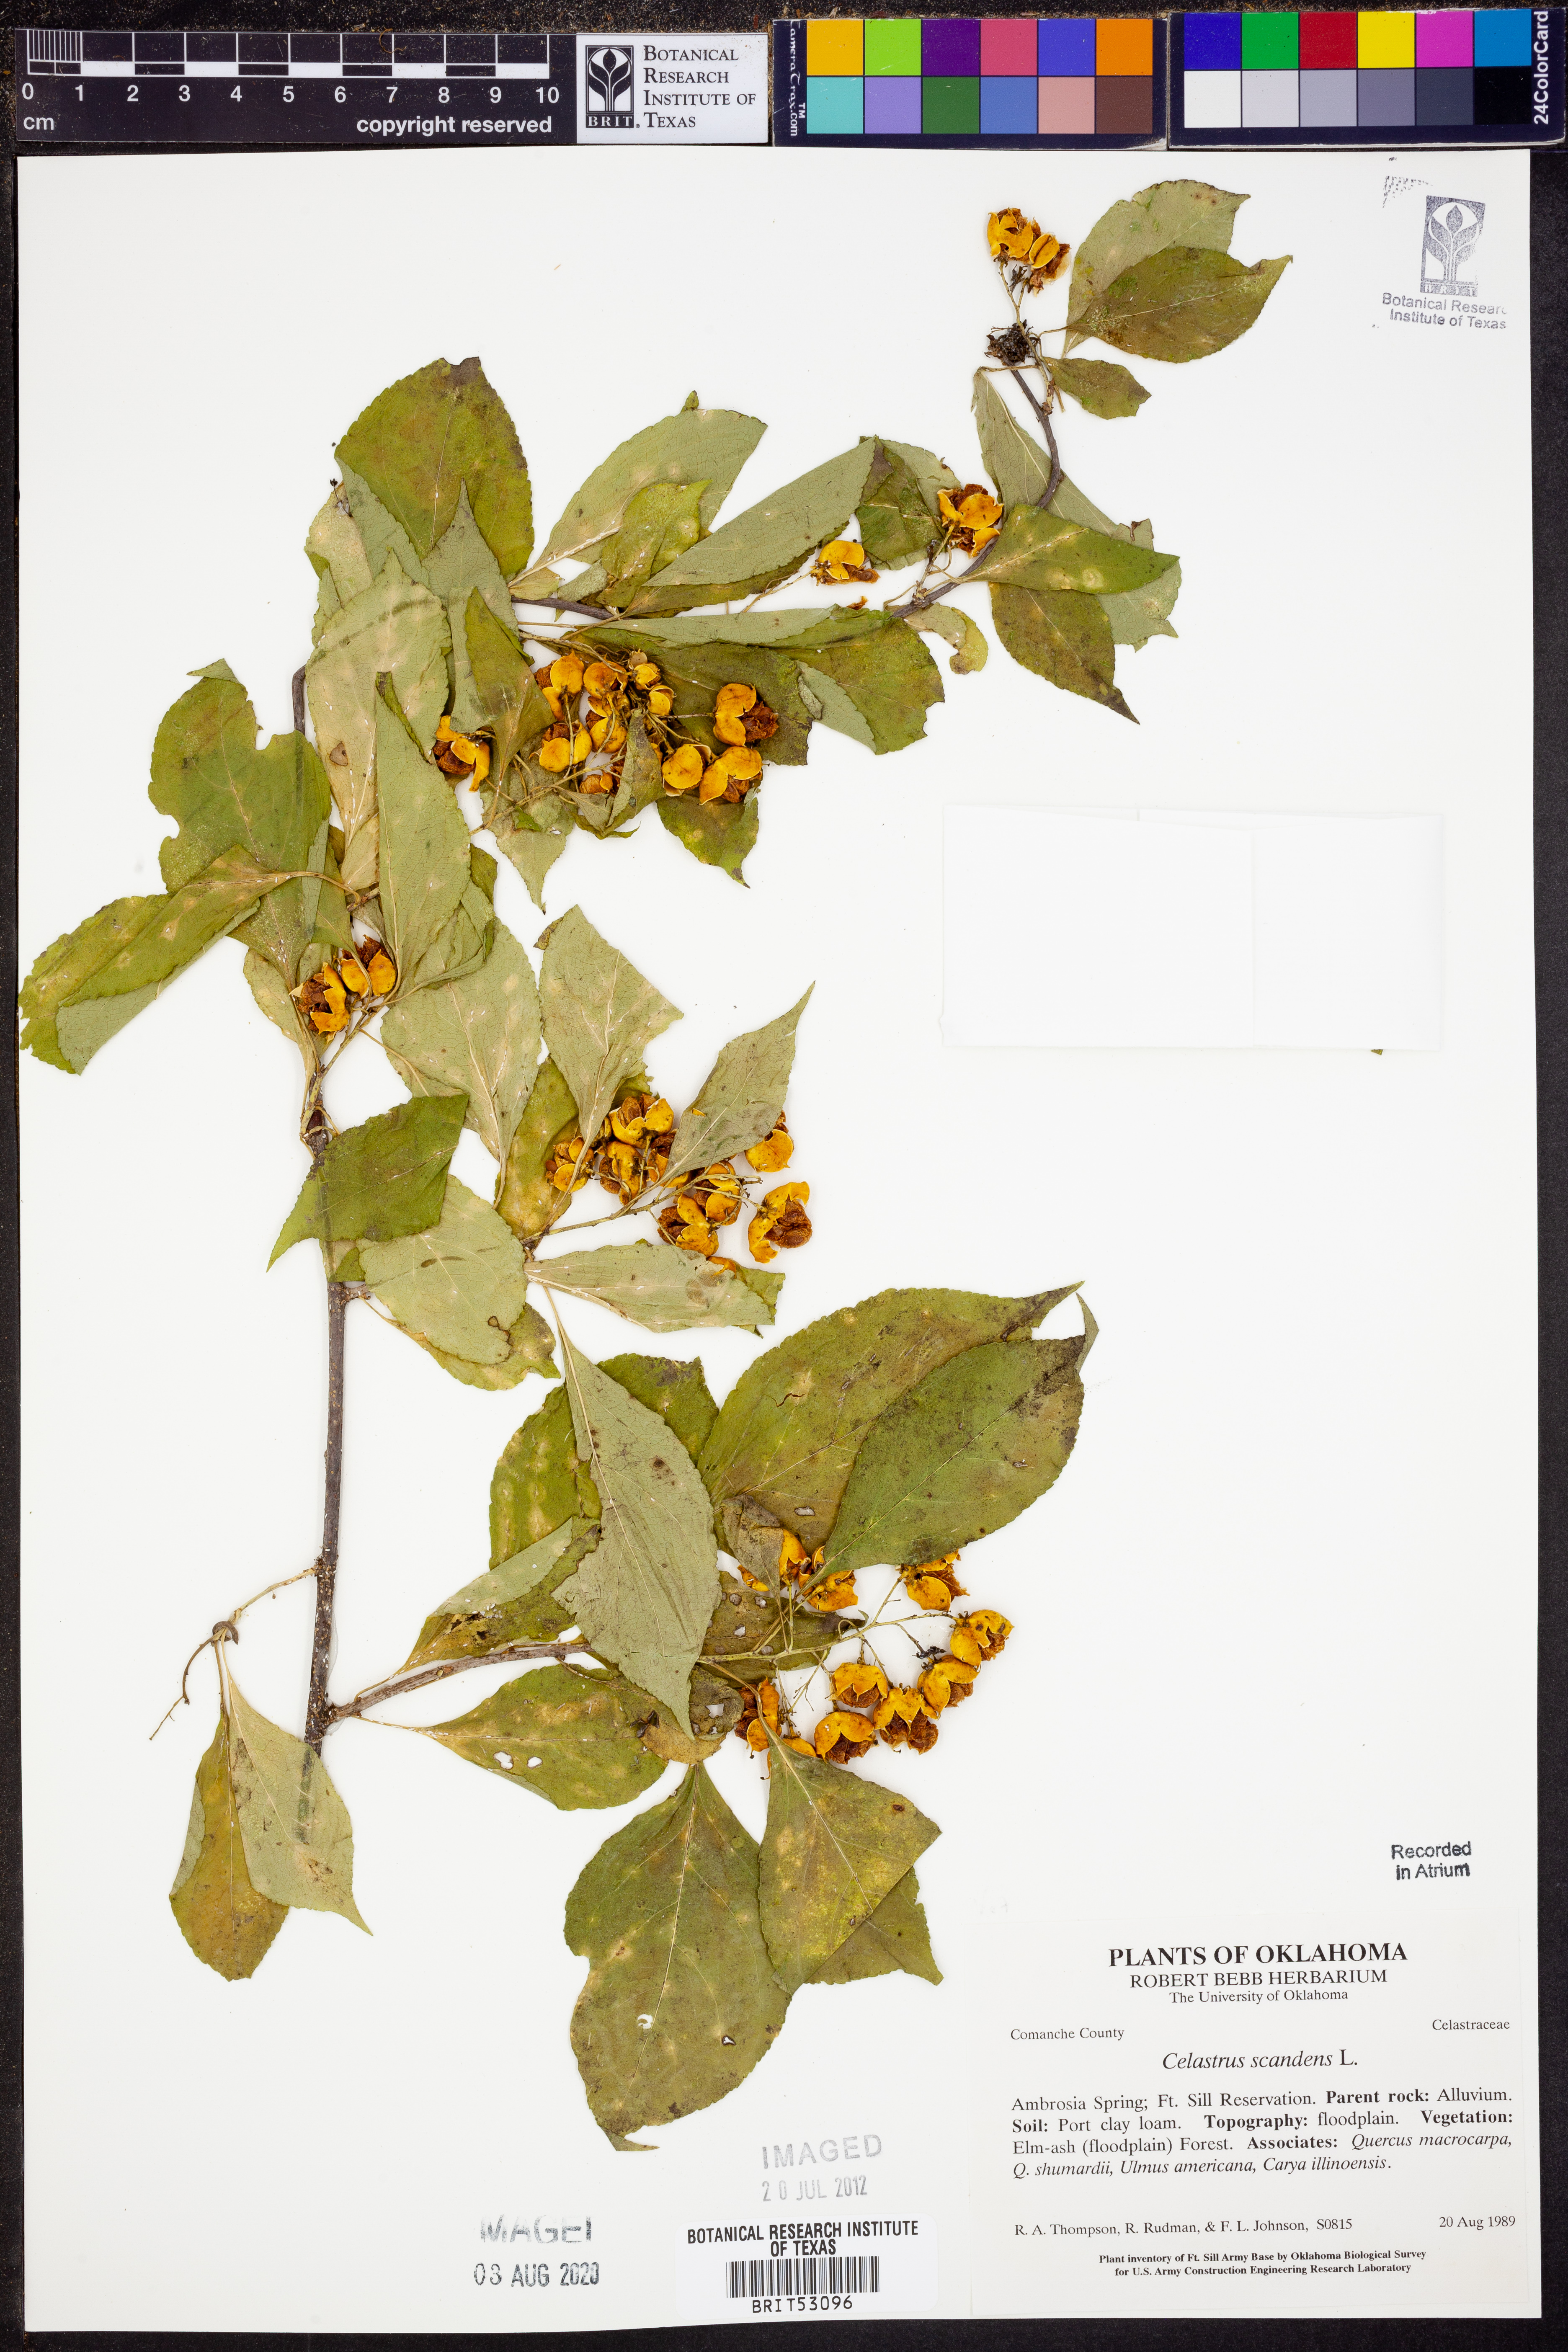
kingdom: Plantae
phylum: Tracheophyta
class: Magnoliopsida
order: Celastrales
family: Celastraceae
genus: Celastrus
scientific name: Celastrus scandens
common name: American bittersweet
